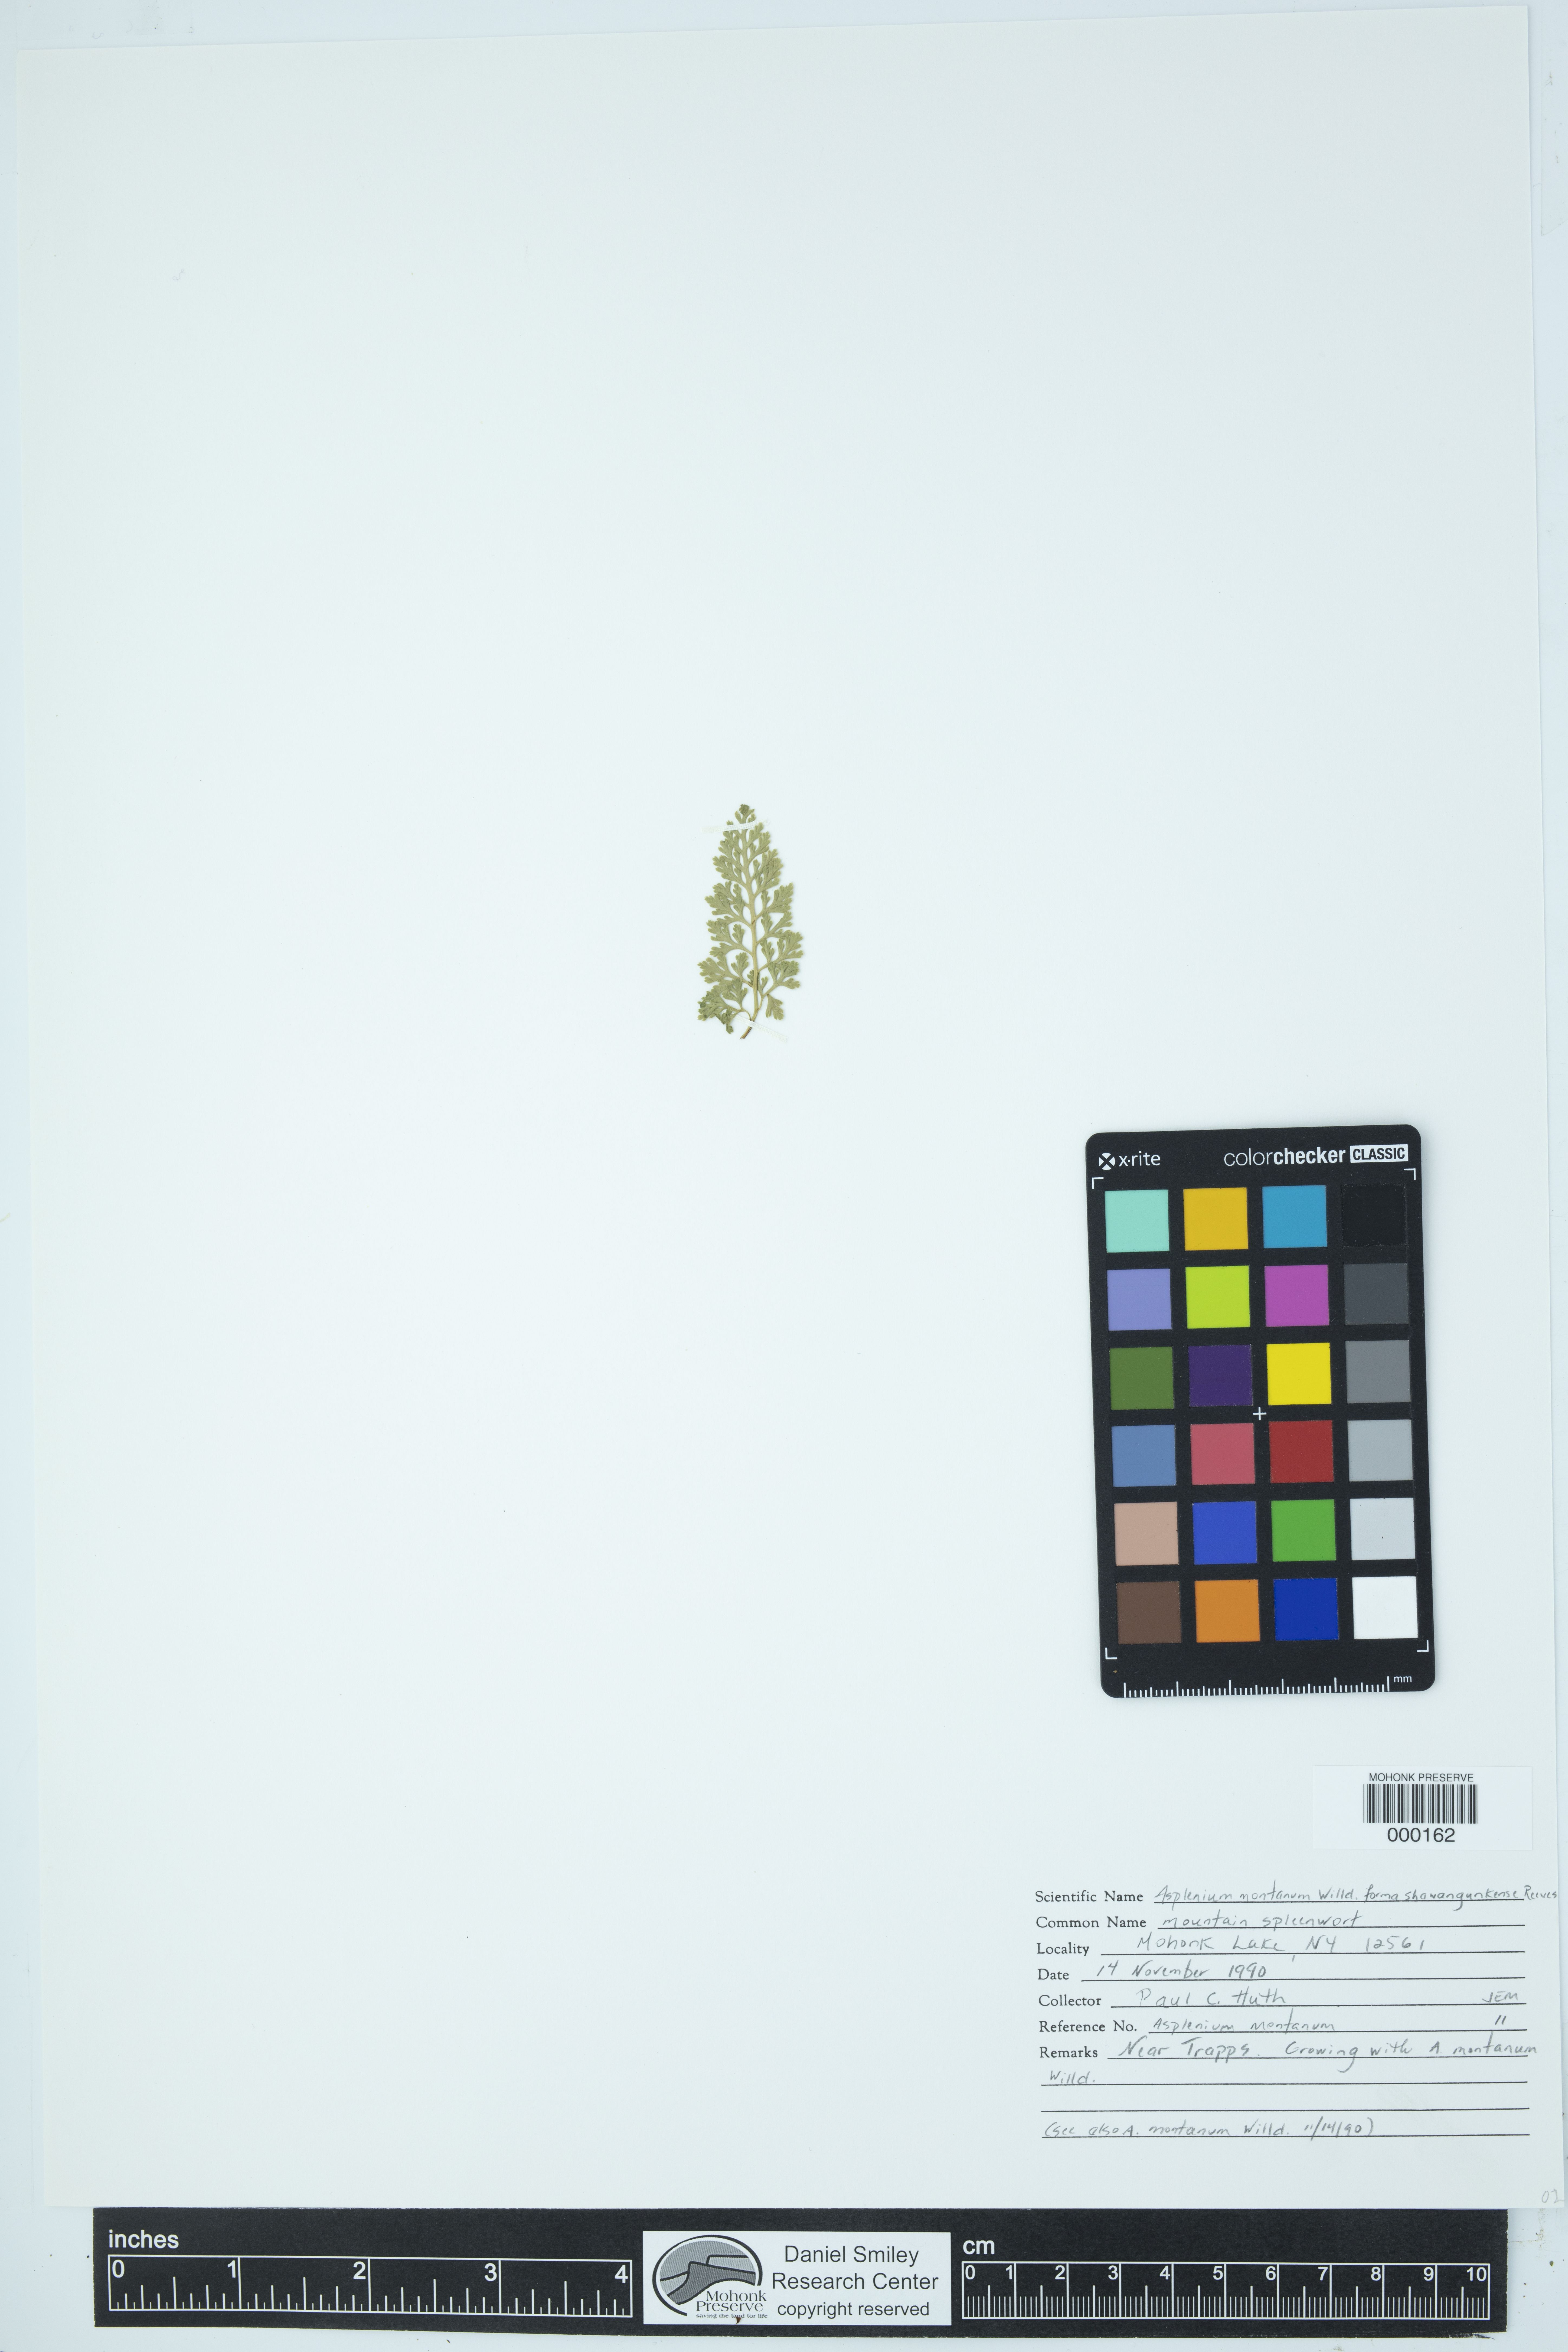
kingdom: Plantae
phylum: Tracheophyta
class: Polypodiopsida
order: Polypodiales
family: Aspleniaceae
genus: Asplenium
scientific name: Asplenium montanum
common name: Mountain spleenwort
